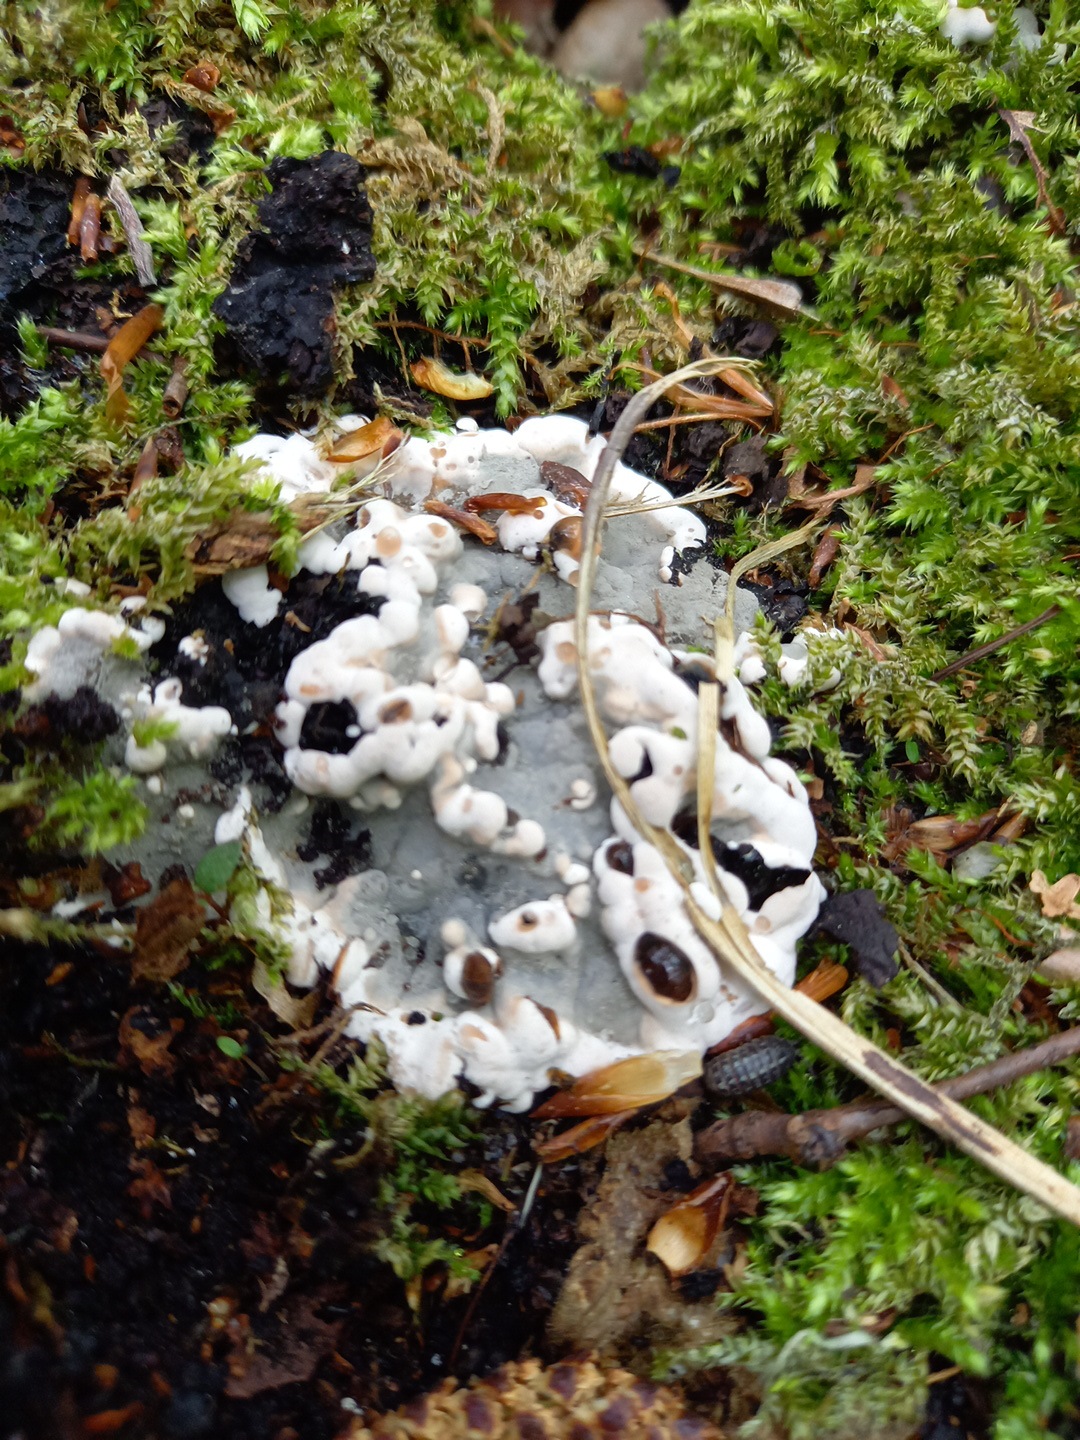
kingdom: Fungi
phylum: Ascomycota
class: Sordariomycetes
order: Xylariales
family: Xylariaceae
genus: Kretzschmaria
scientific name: Kretzschmaria deusta
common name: stor kulsvamp
